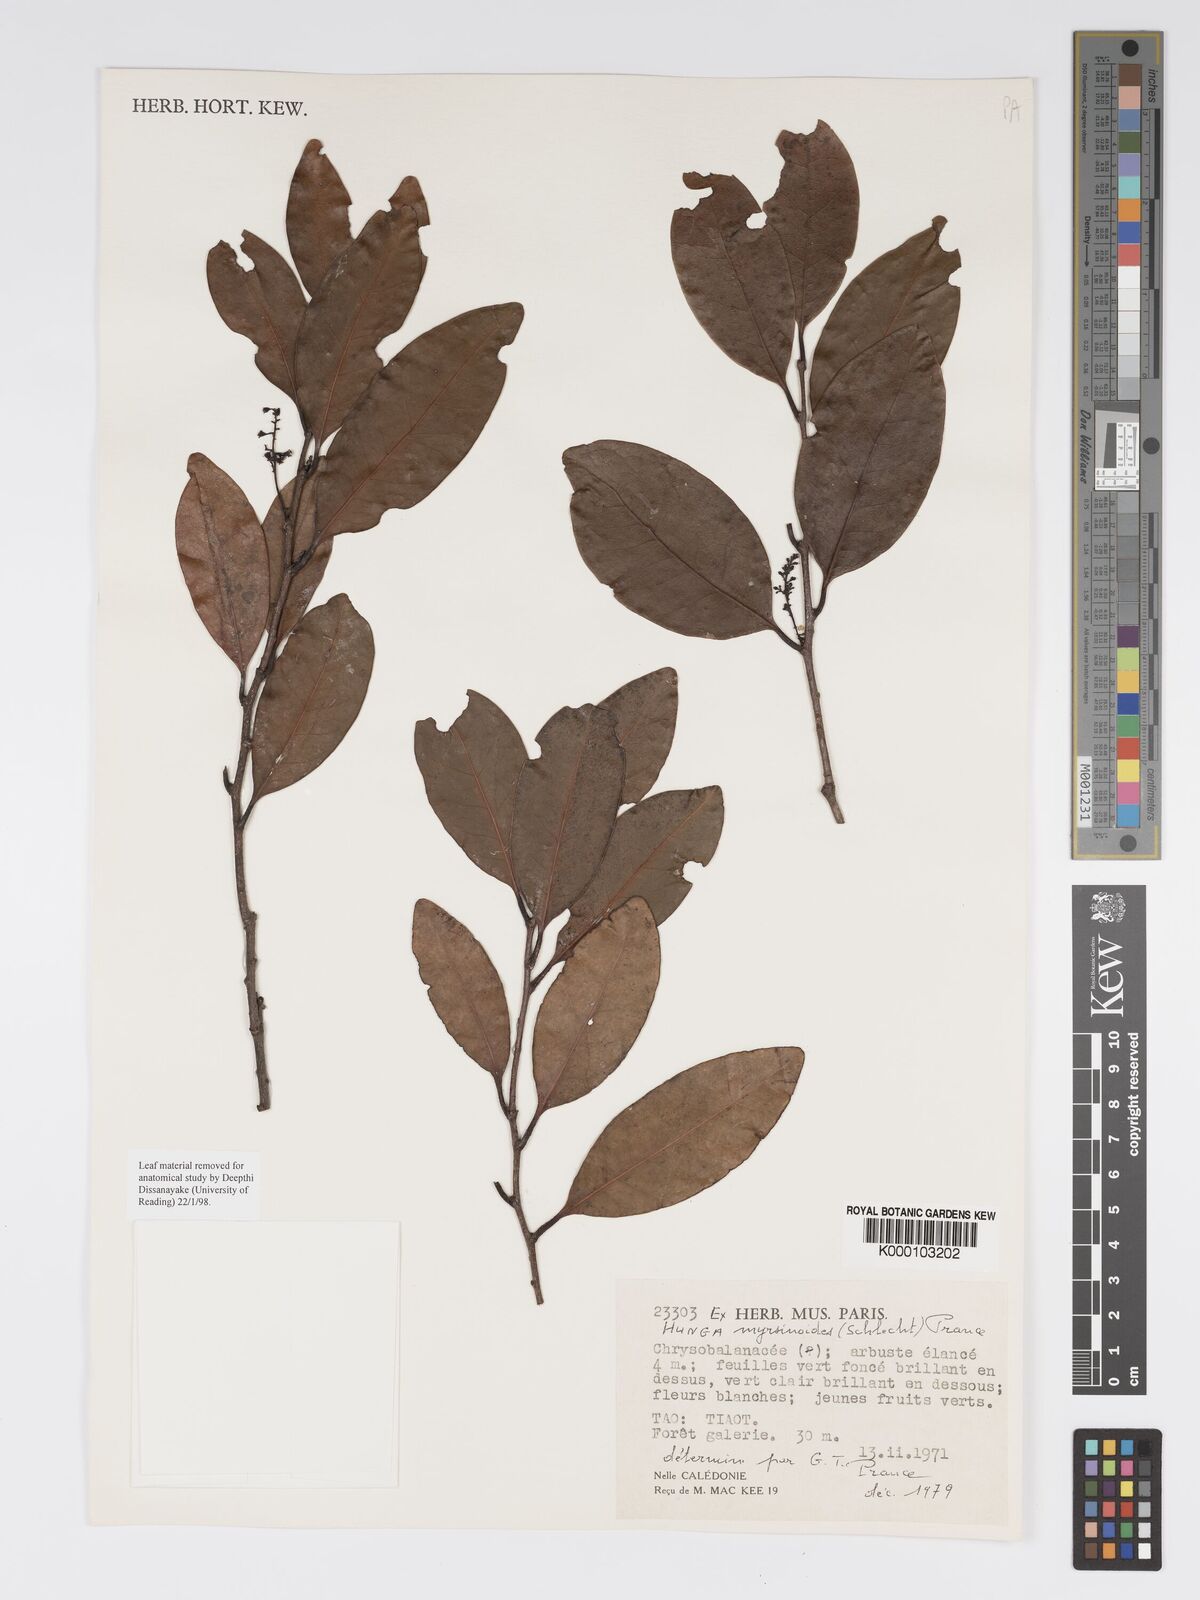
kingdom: Plantae
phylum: Tracheophyta
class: Magnoliopsida
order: Malpighiales
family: Chrysobalanaceae
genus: Hunga
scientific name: Hunga myrsinoides
